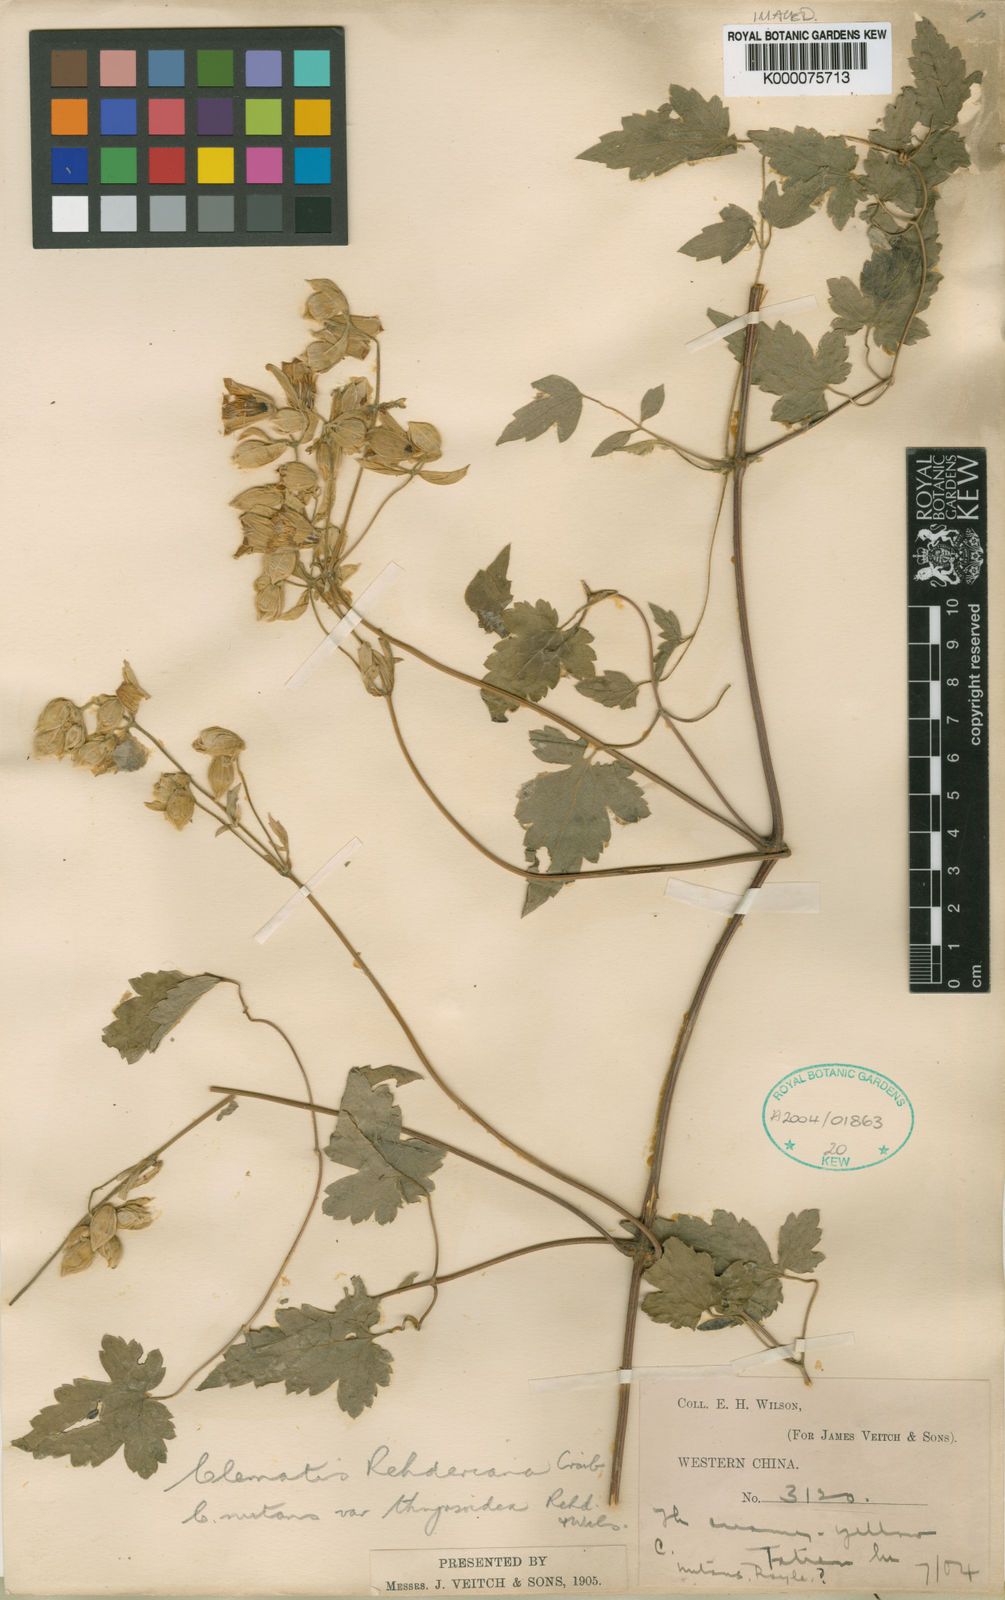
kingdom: Plantae
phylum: Tracheophyta
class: Magnoliopsida
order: Ranunculales
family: Ranunculaceae
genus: Clematis
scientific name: Clematis rehderiana
